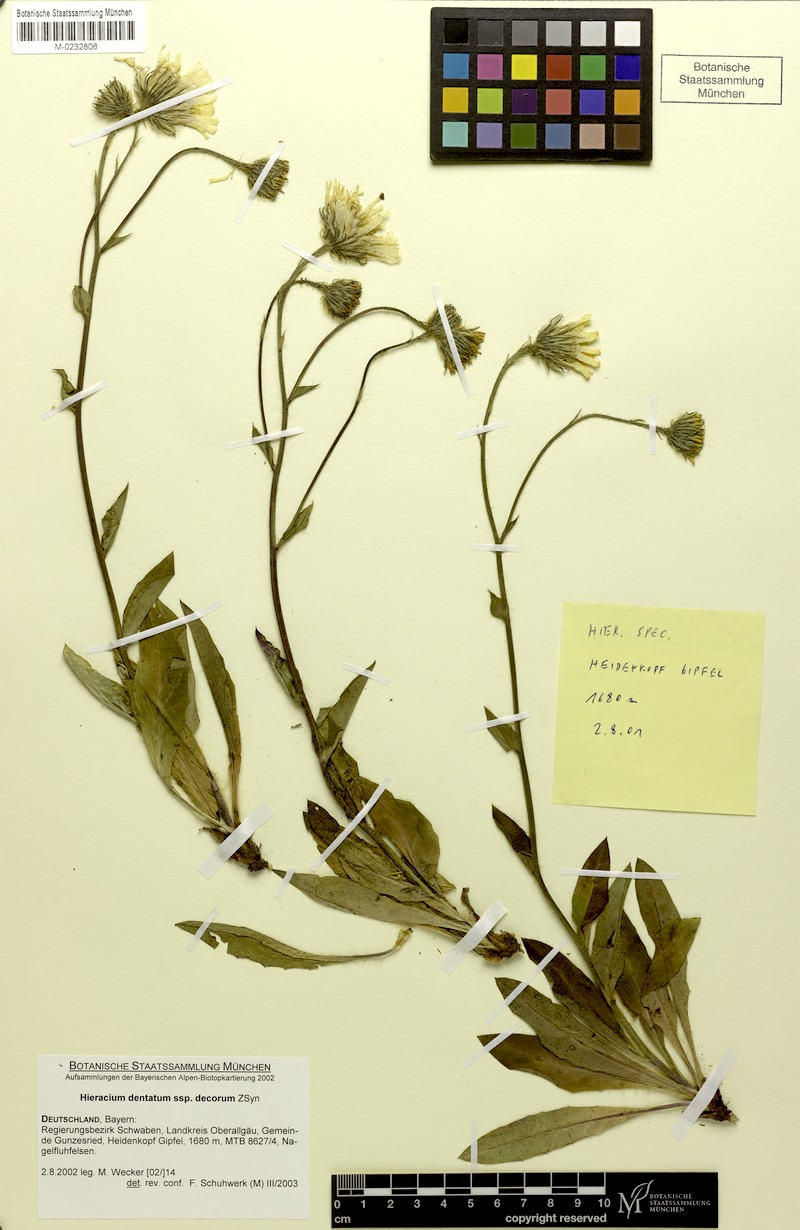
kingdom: Plantae
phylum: Tracheophyta
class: Magnoliopsida
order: Asterales
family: Asteraceae
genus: Hieracium
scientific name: Hieracium dentatum
